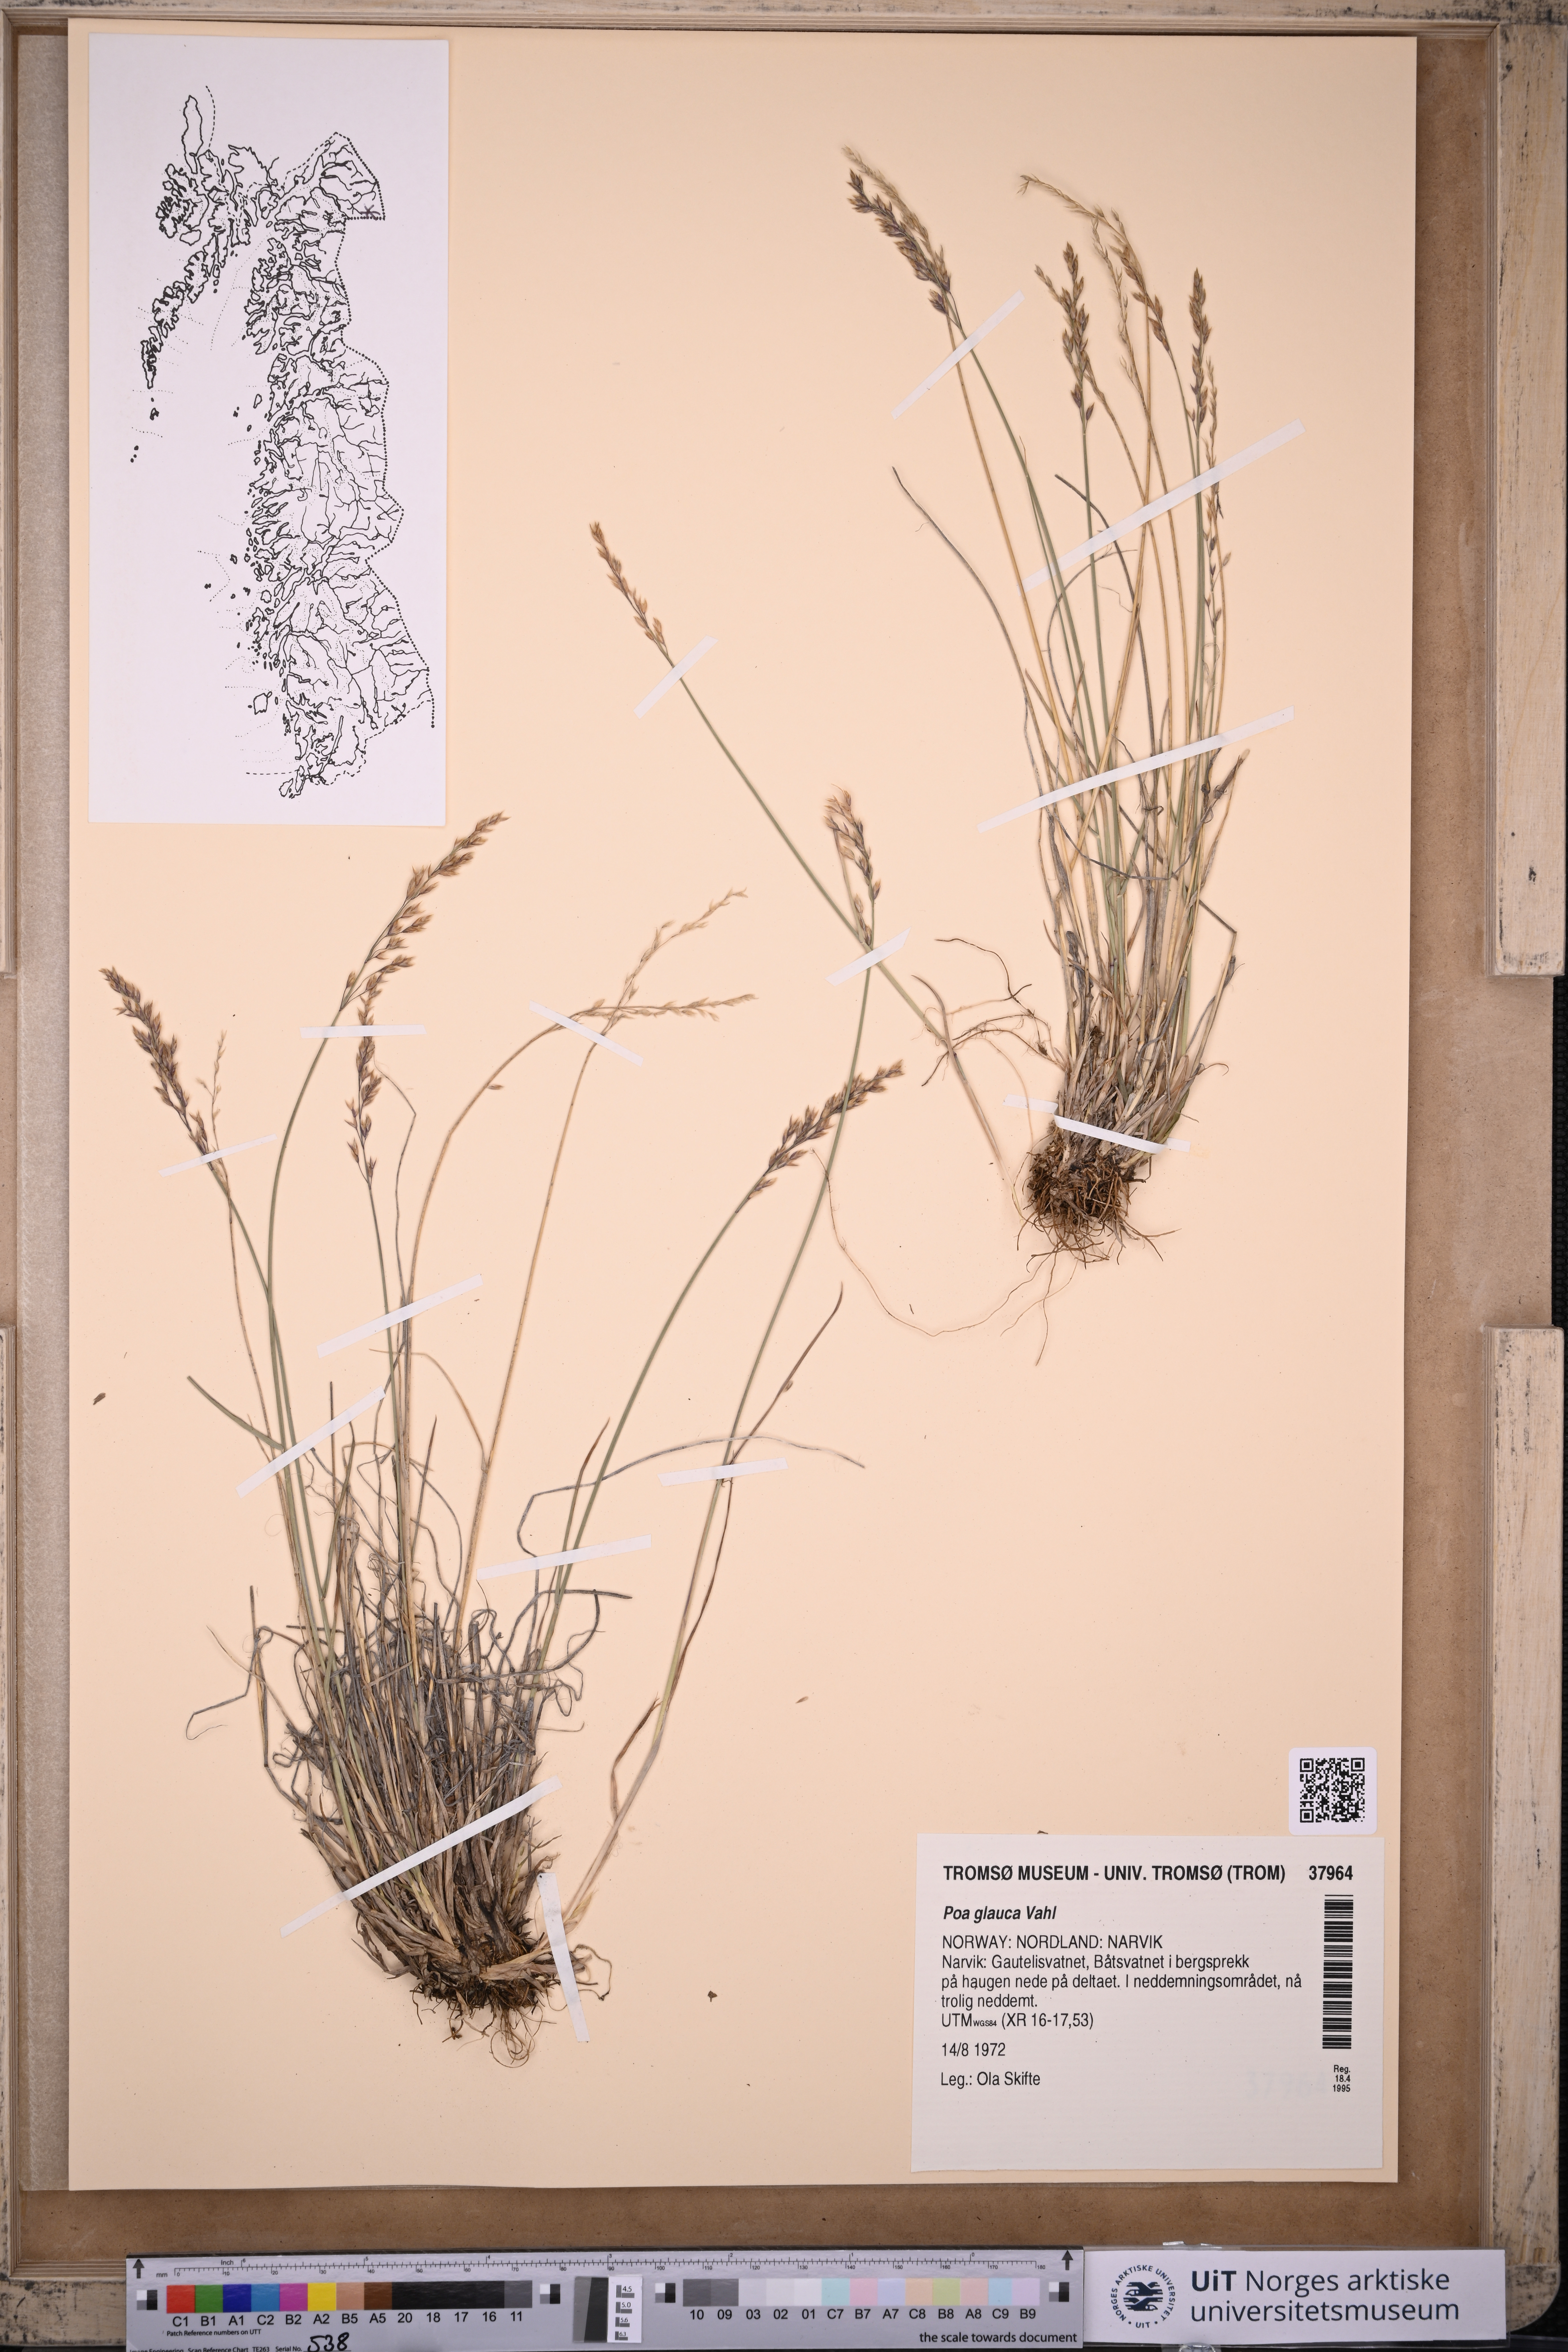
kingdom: Plantae
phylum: Tracheophyta
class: Liliopsida
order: Poales
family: Poaceae
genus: Poa
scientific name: Poa glauca
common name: Glaucous bluegrass
